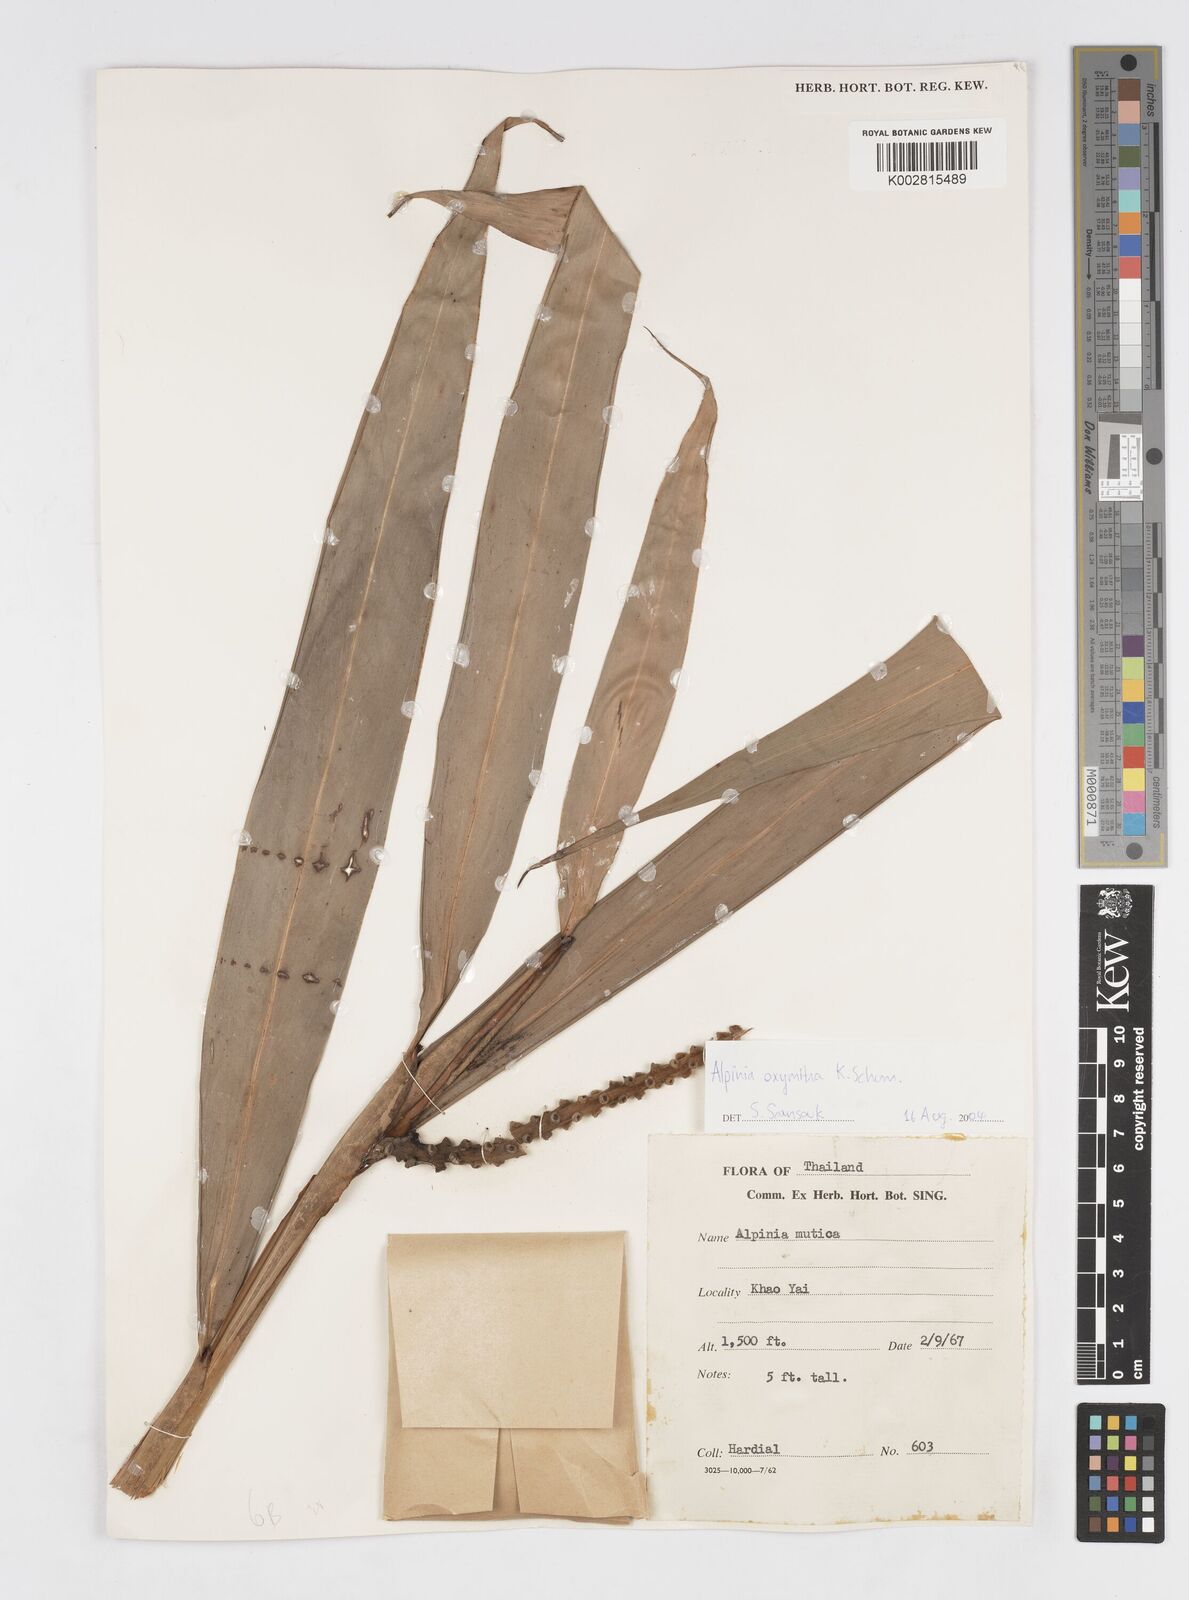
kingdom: Plantae
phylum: Tracheophyta
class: Liliopsida
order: Zingiberales
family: Zingiberaceae
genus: Alpinia
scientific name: Alpinia oxymitra
